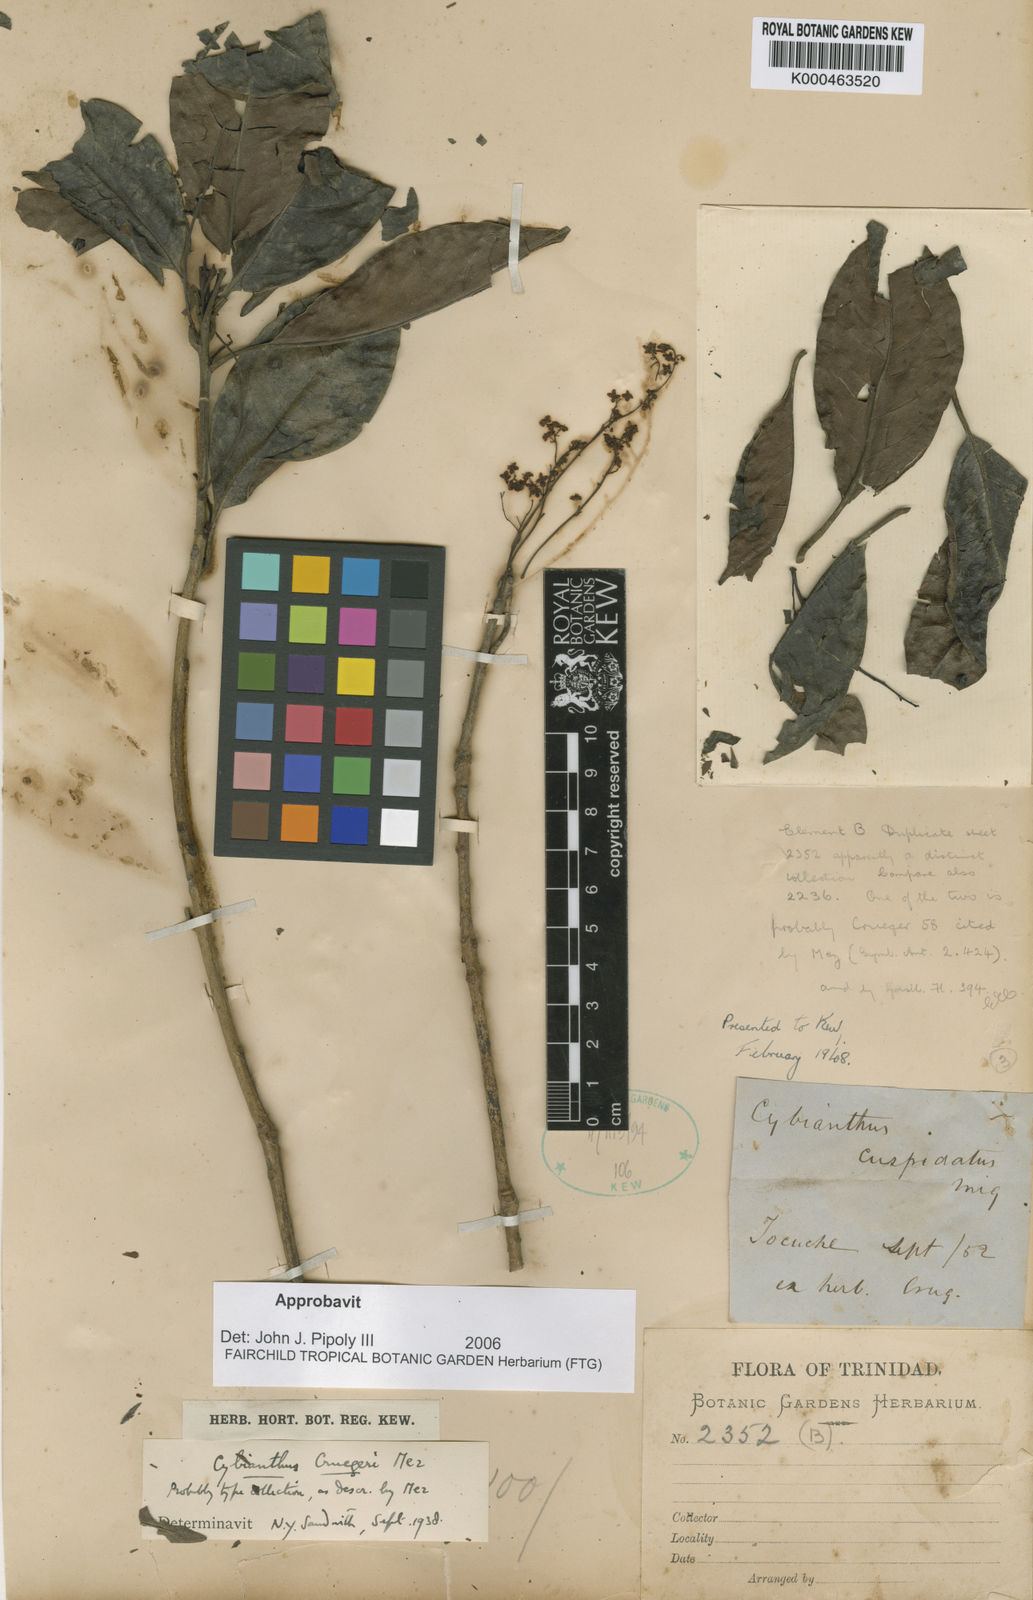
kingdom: Plantae
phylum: Tracheophyta
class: Magnoliopsida
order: Ericales
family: Primulaceae
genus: Cybianthus
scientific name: Cybianthus cruegeri
